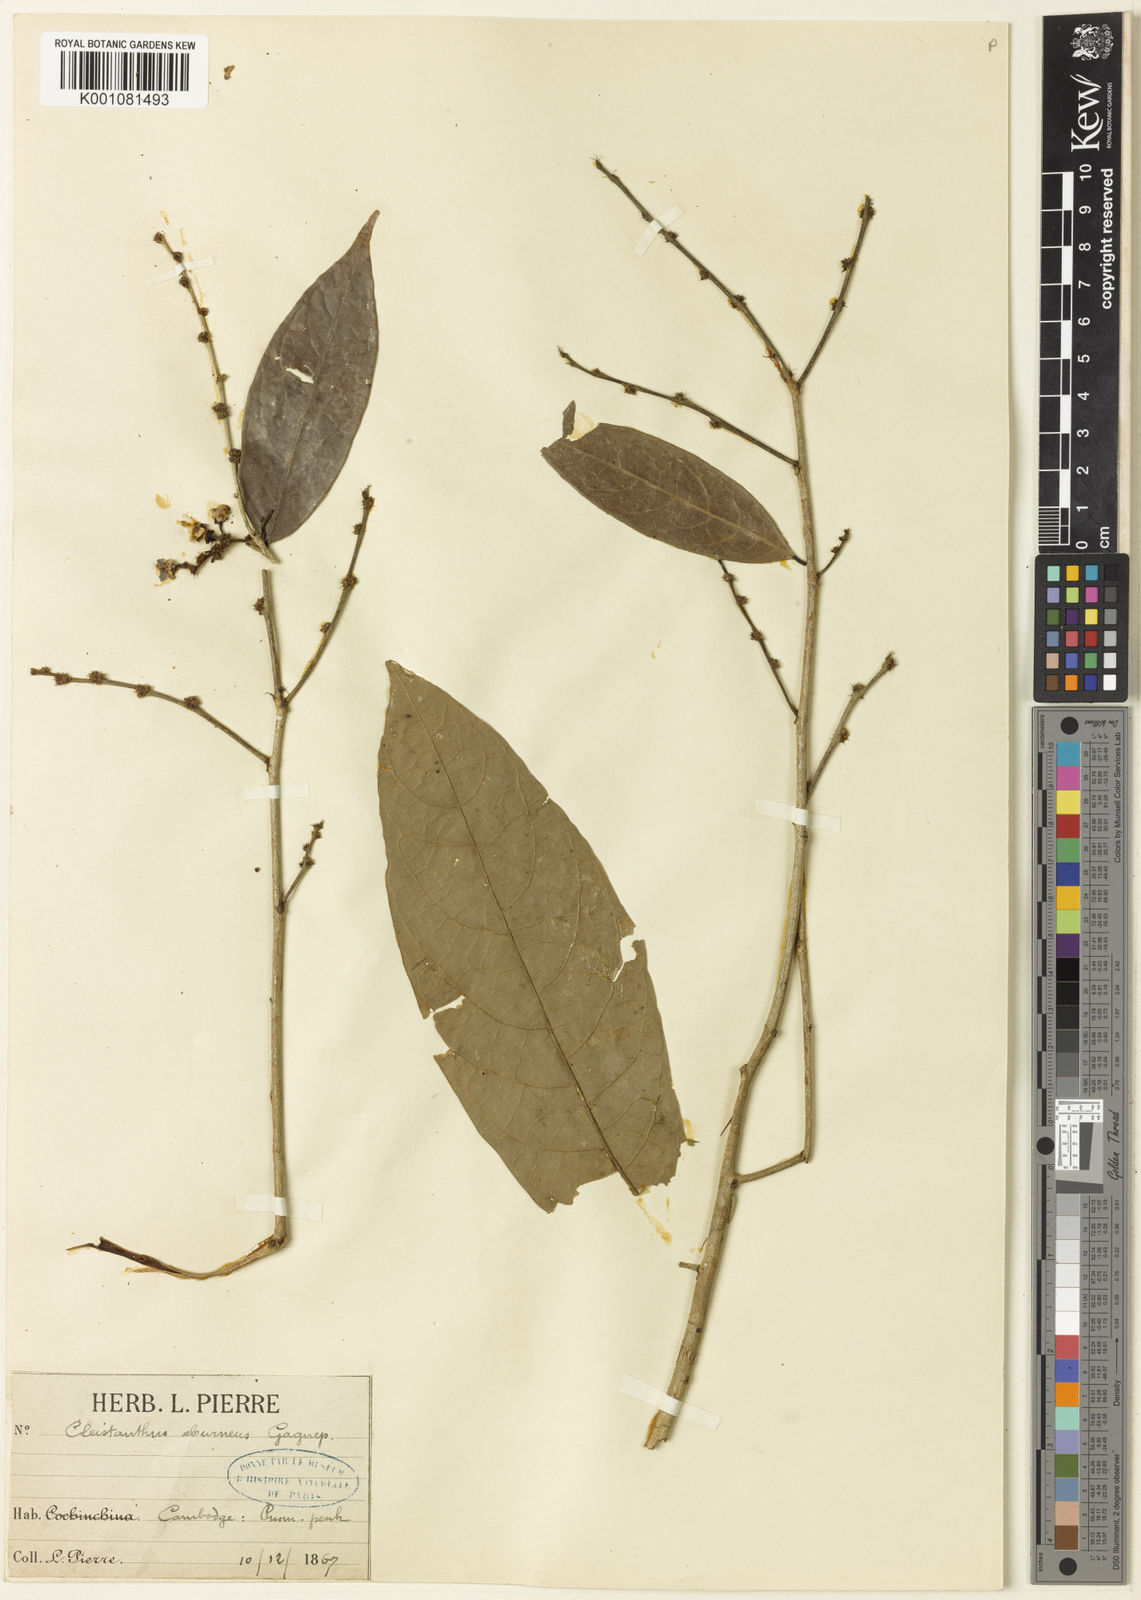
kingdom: Plantae
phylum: Tracheophyta
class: Magnoliopsida
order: Malpighiales
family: Phyllanthaceae
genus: Cleistanthus
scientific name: Cleistanthus tomentosus
